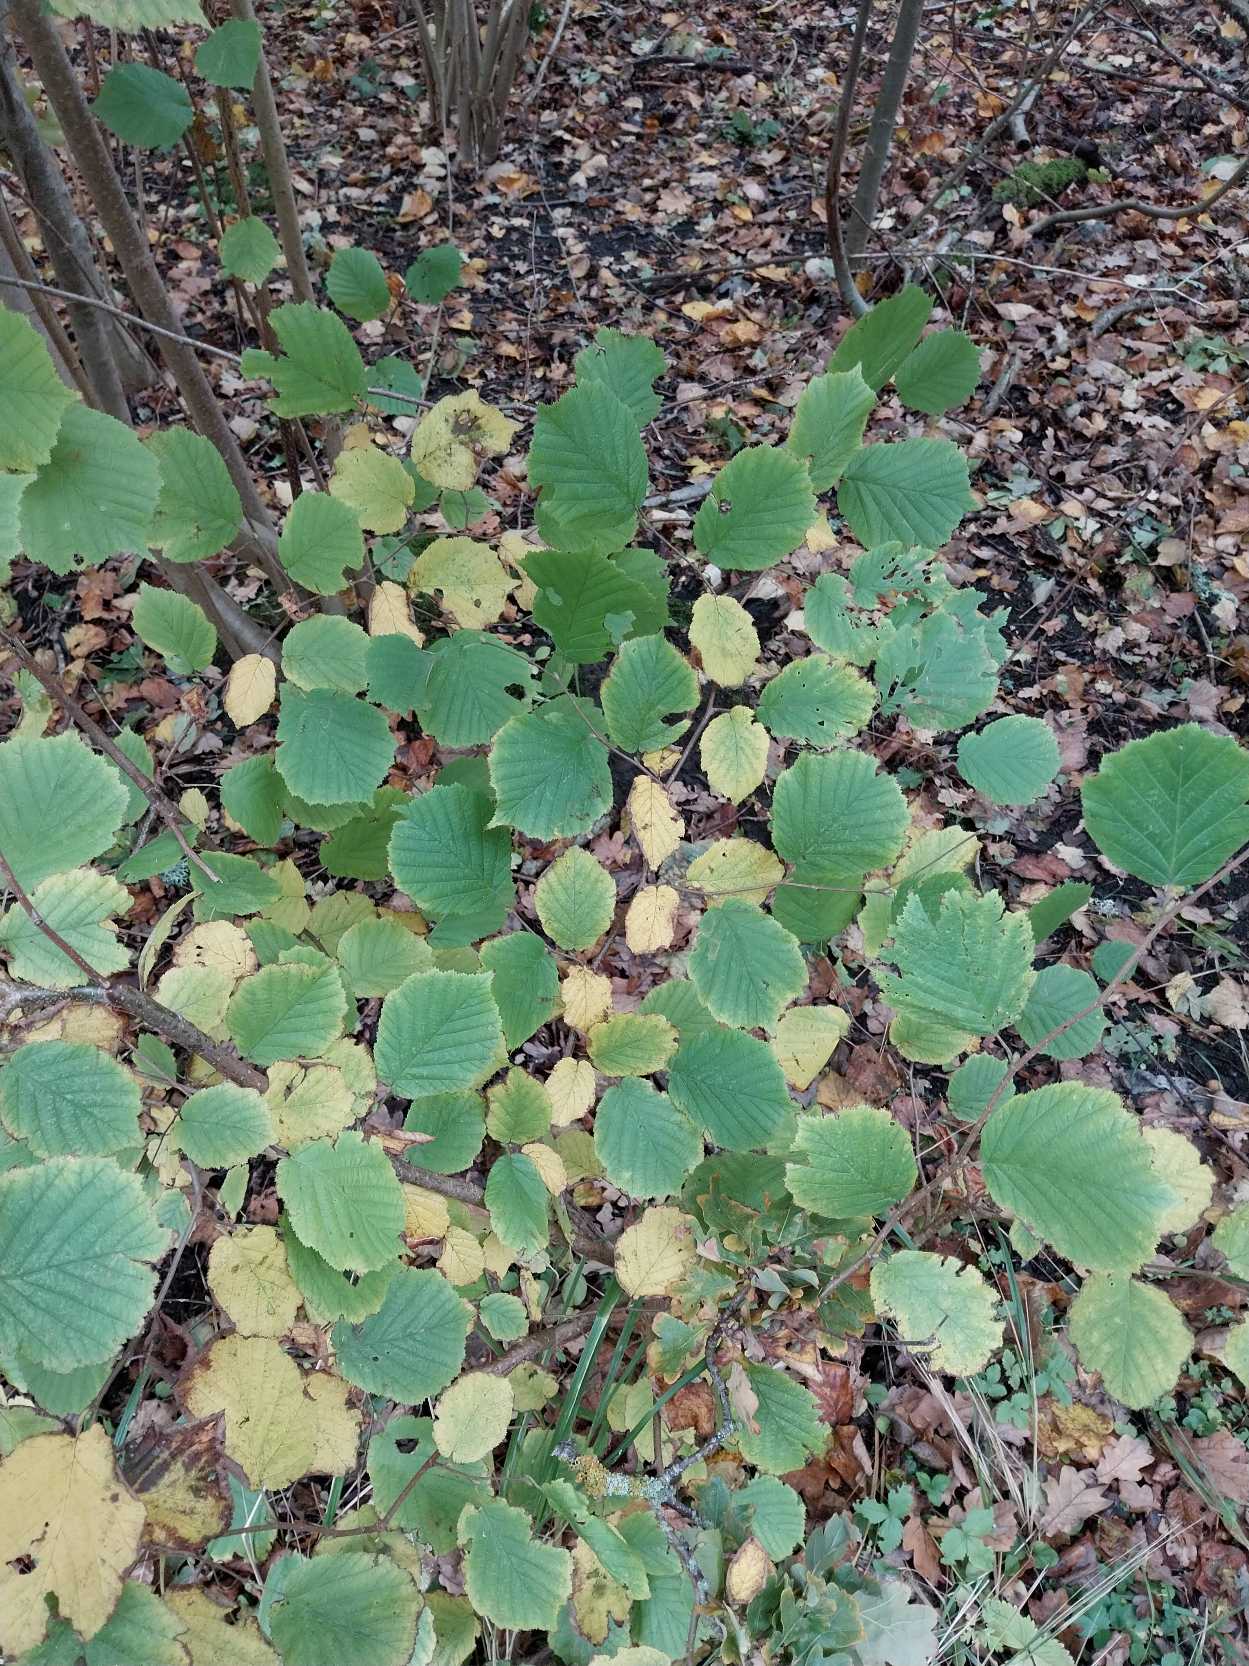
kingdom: Plantae
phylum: Tracheophyta
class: Magnoliopsida
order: Fagales
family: Betulaceae
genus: Corylus
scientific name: Corylus avellana
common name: Hassel
